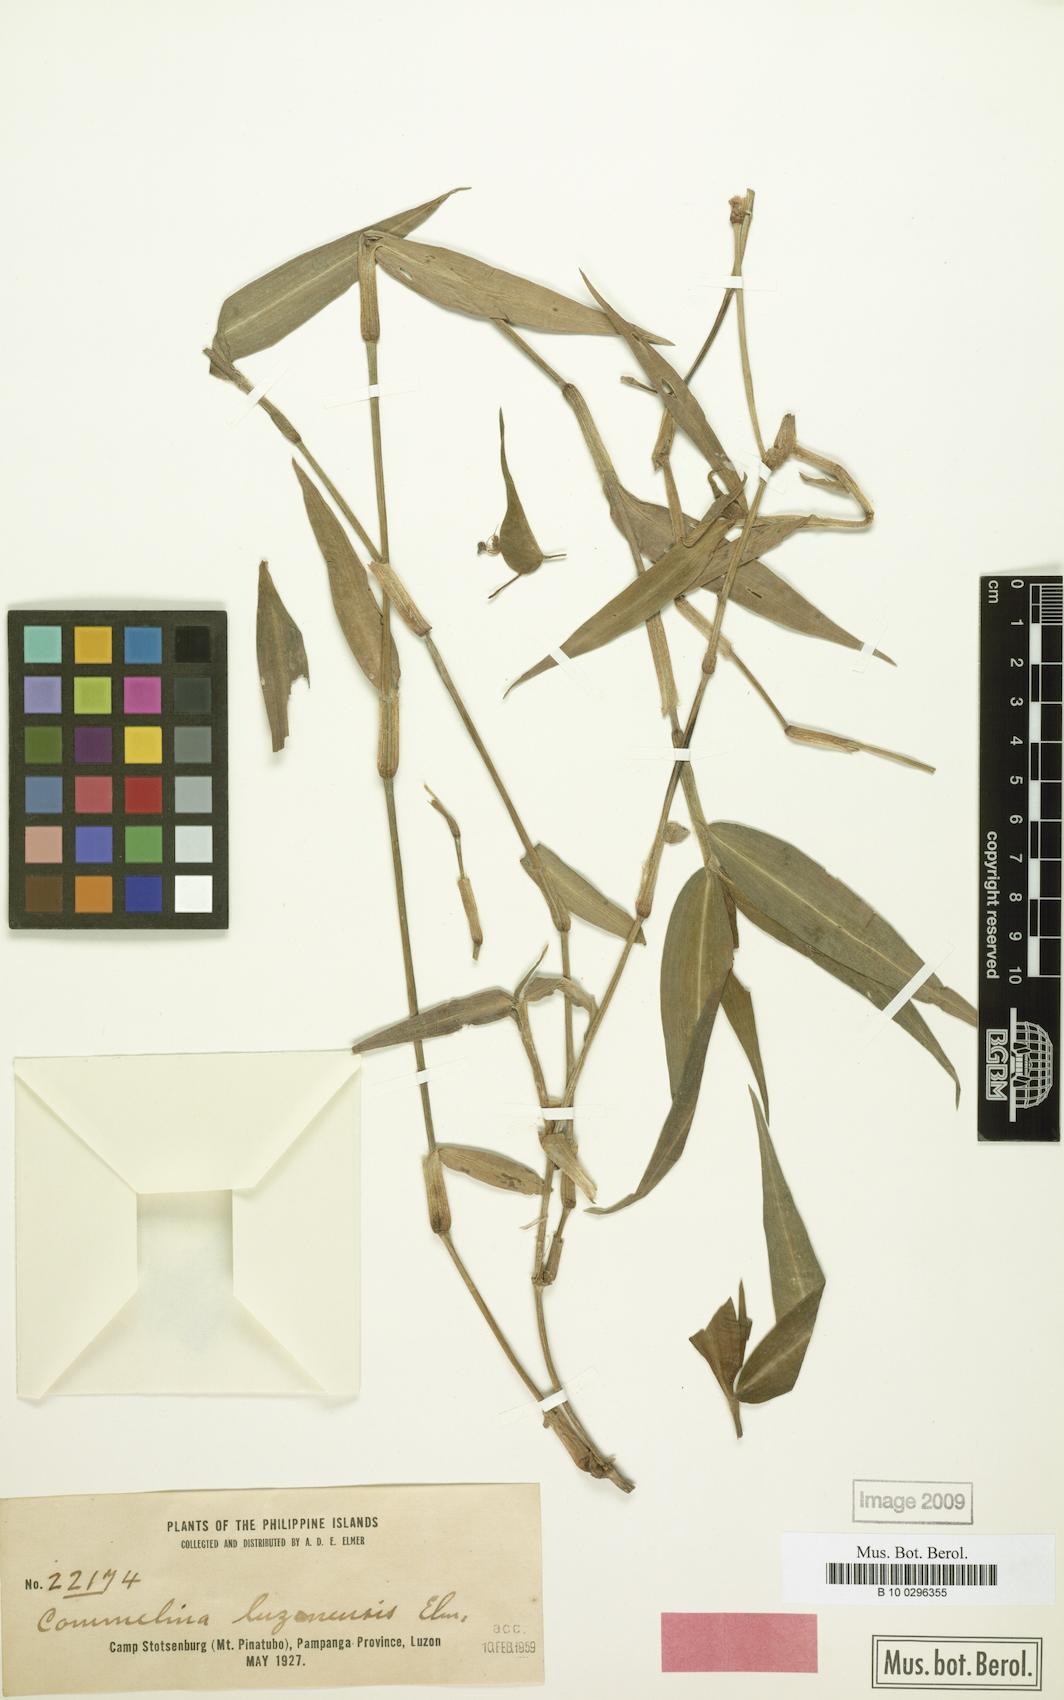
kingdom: Plantae
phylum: Tracheophyta
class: Liliopsida
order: Commelinales
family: Commelinaceae
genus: Commelina
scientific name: Commelina luzonensis
